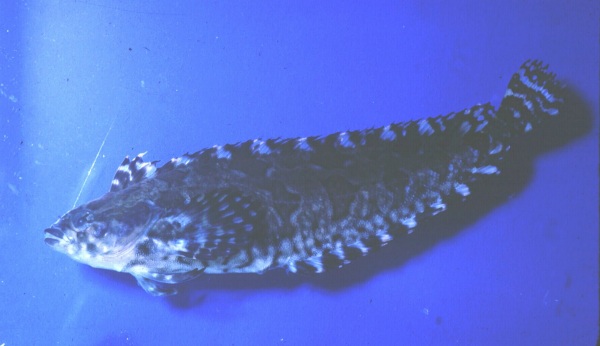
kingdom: Animalia
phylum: Chordata
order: Perciformes
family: Clinidae
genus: Pavoclinus
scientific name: Pavoclinus laurentii
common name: Rippled klipfish
